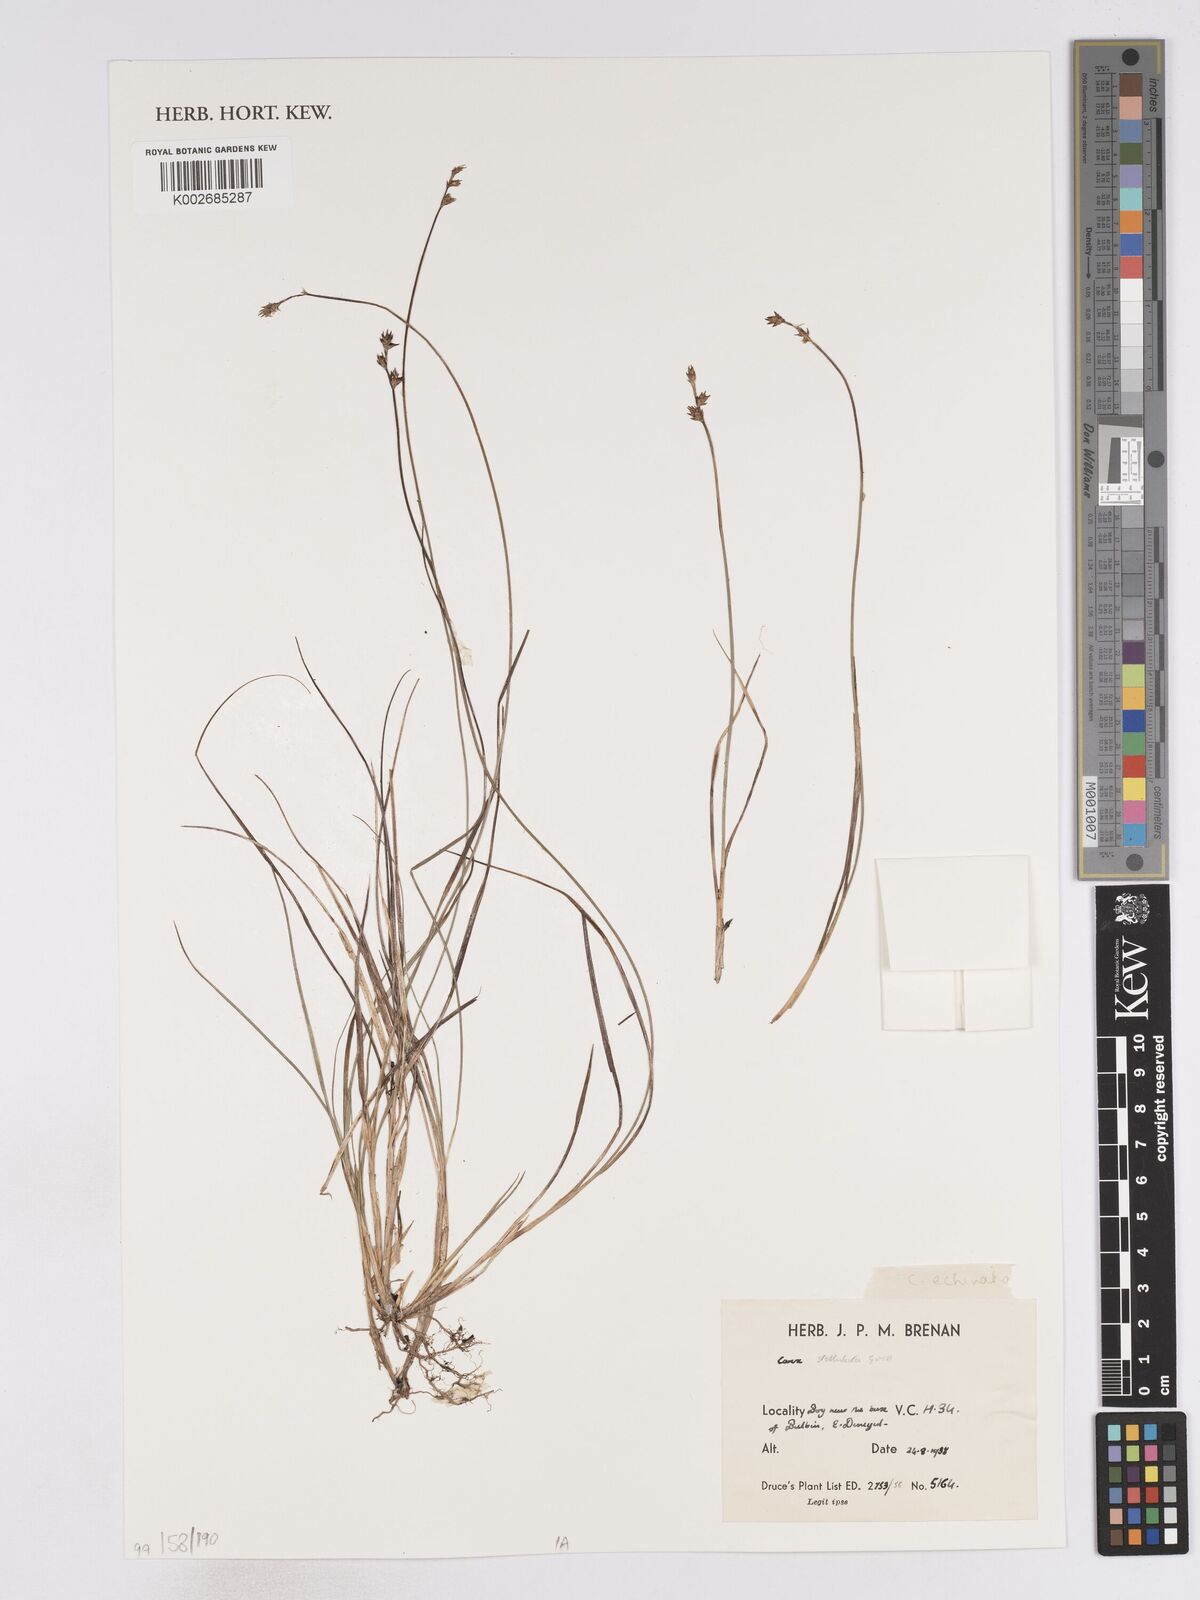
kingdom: Plantae
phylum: Tracheophyta
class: Liliopsida
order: Poales
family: Cyperaceae
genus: Carex
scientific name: Carex echinata
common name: Star sedge
